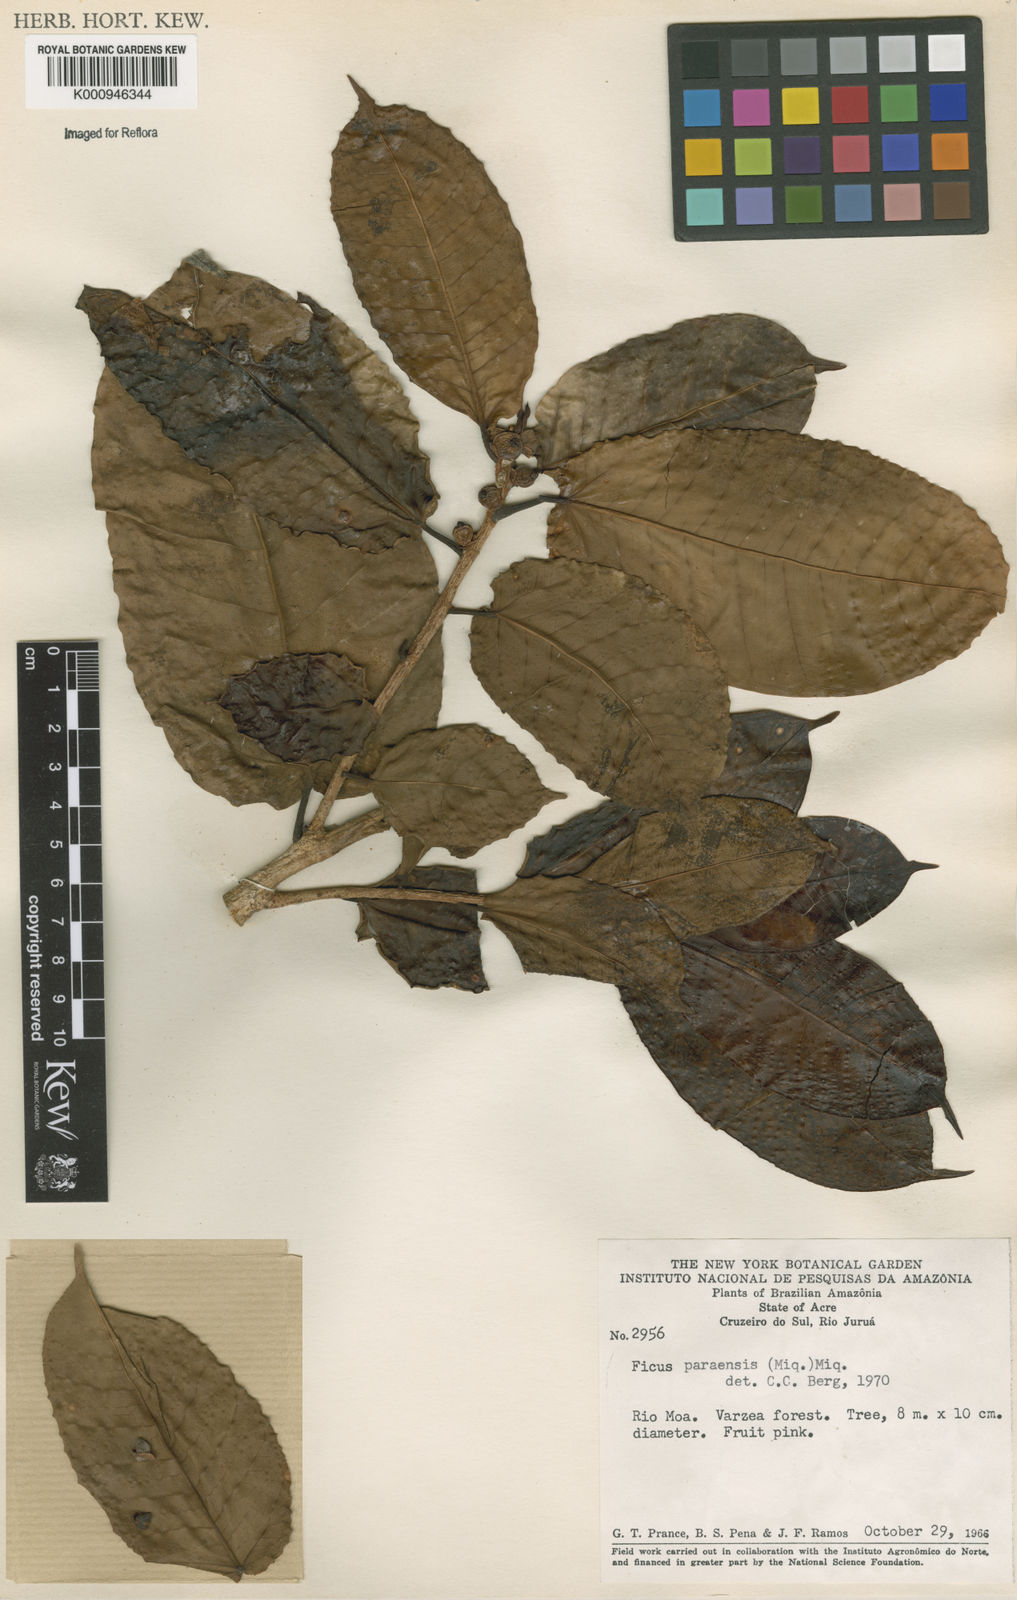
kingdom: Plantae
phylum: Tracheophyta
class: Magnoliopsida
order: Rosales
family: Moraceae
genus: Ficus
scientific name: Ficus paraensis
